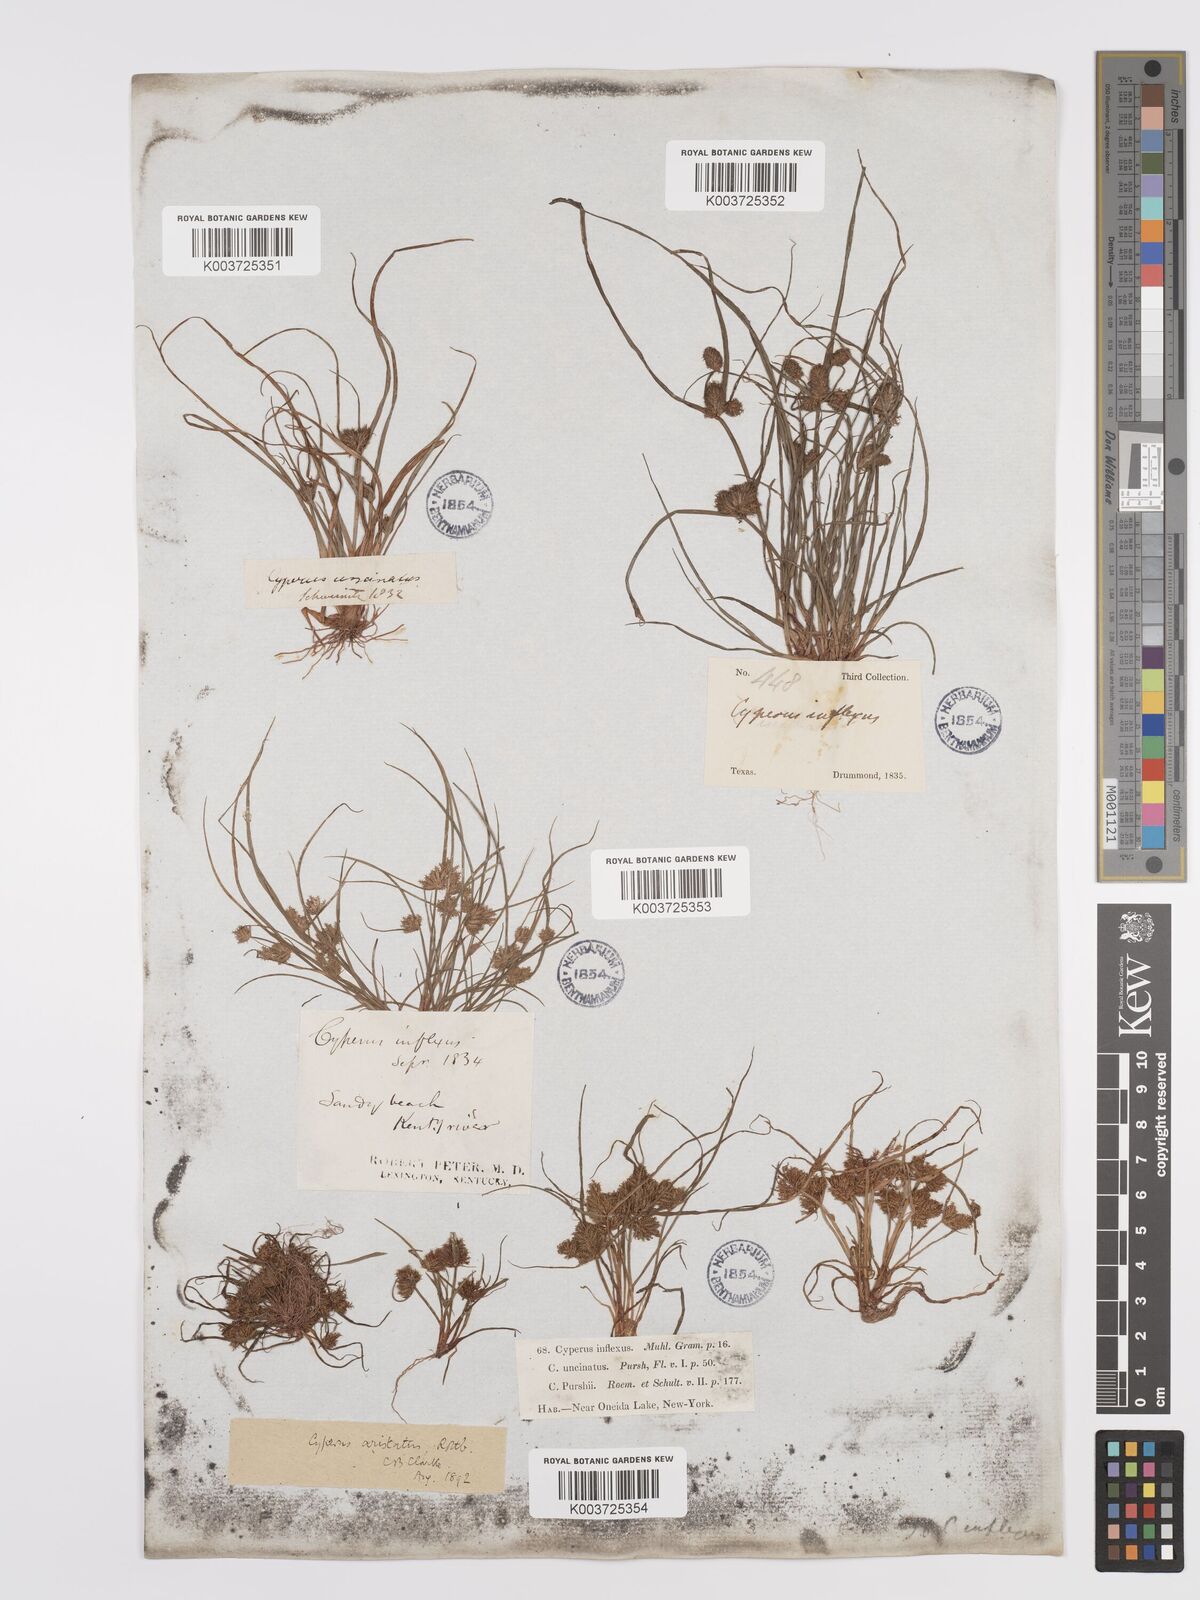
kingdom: Plantae
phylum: Tracheophyta
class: Liliopsida
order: Poales
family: Cyperaceae
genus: Cyperus
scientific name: Cyperus squarrosus
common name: Awned cyperus
